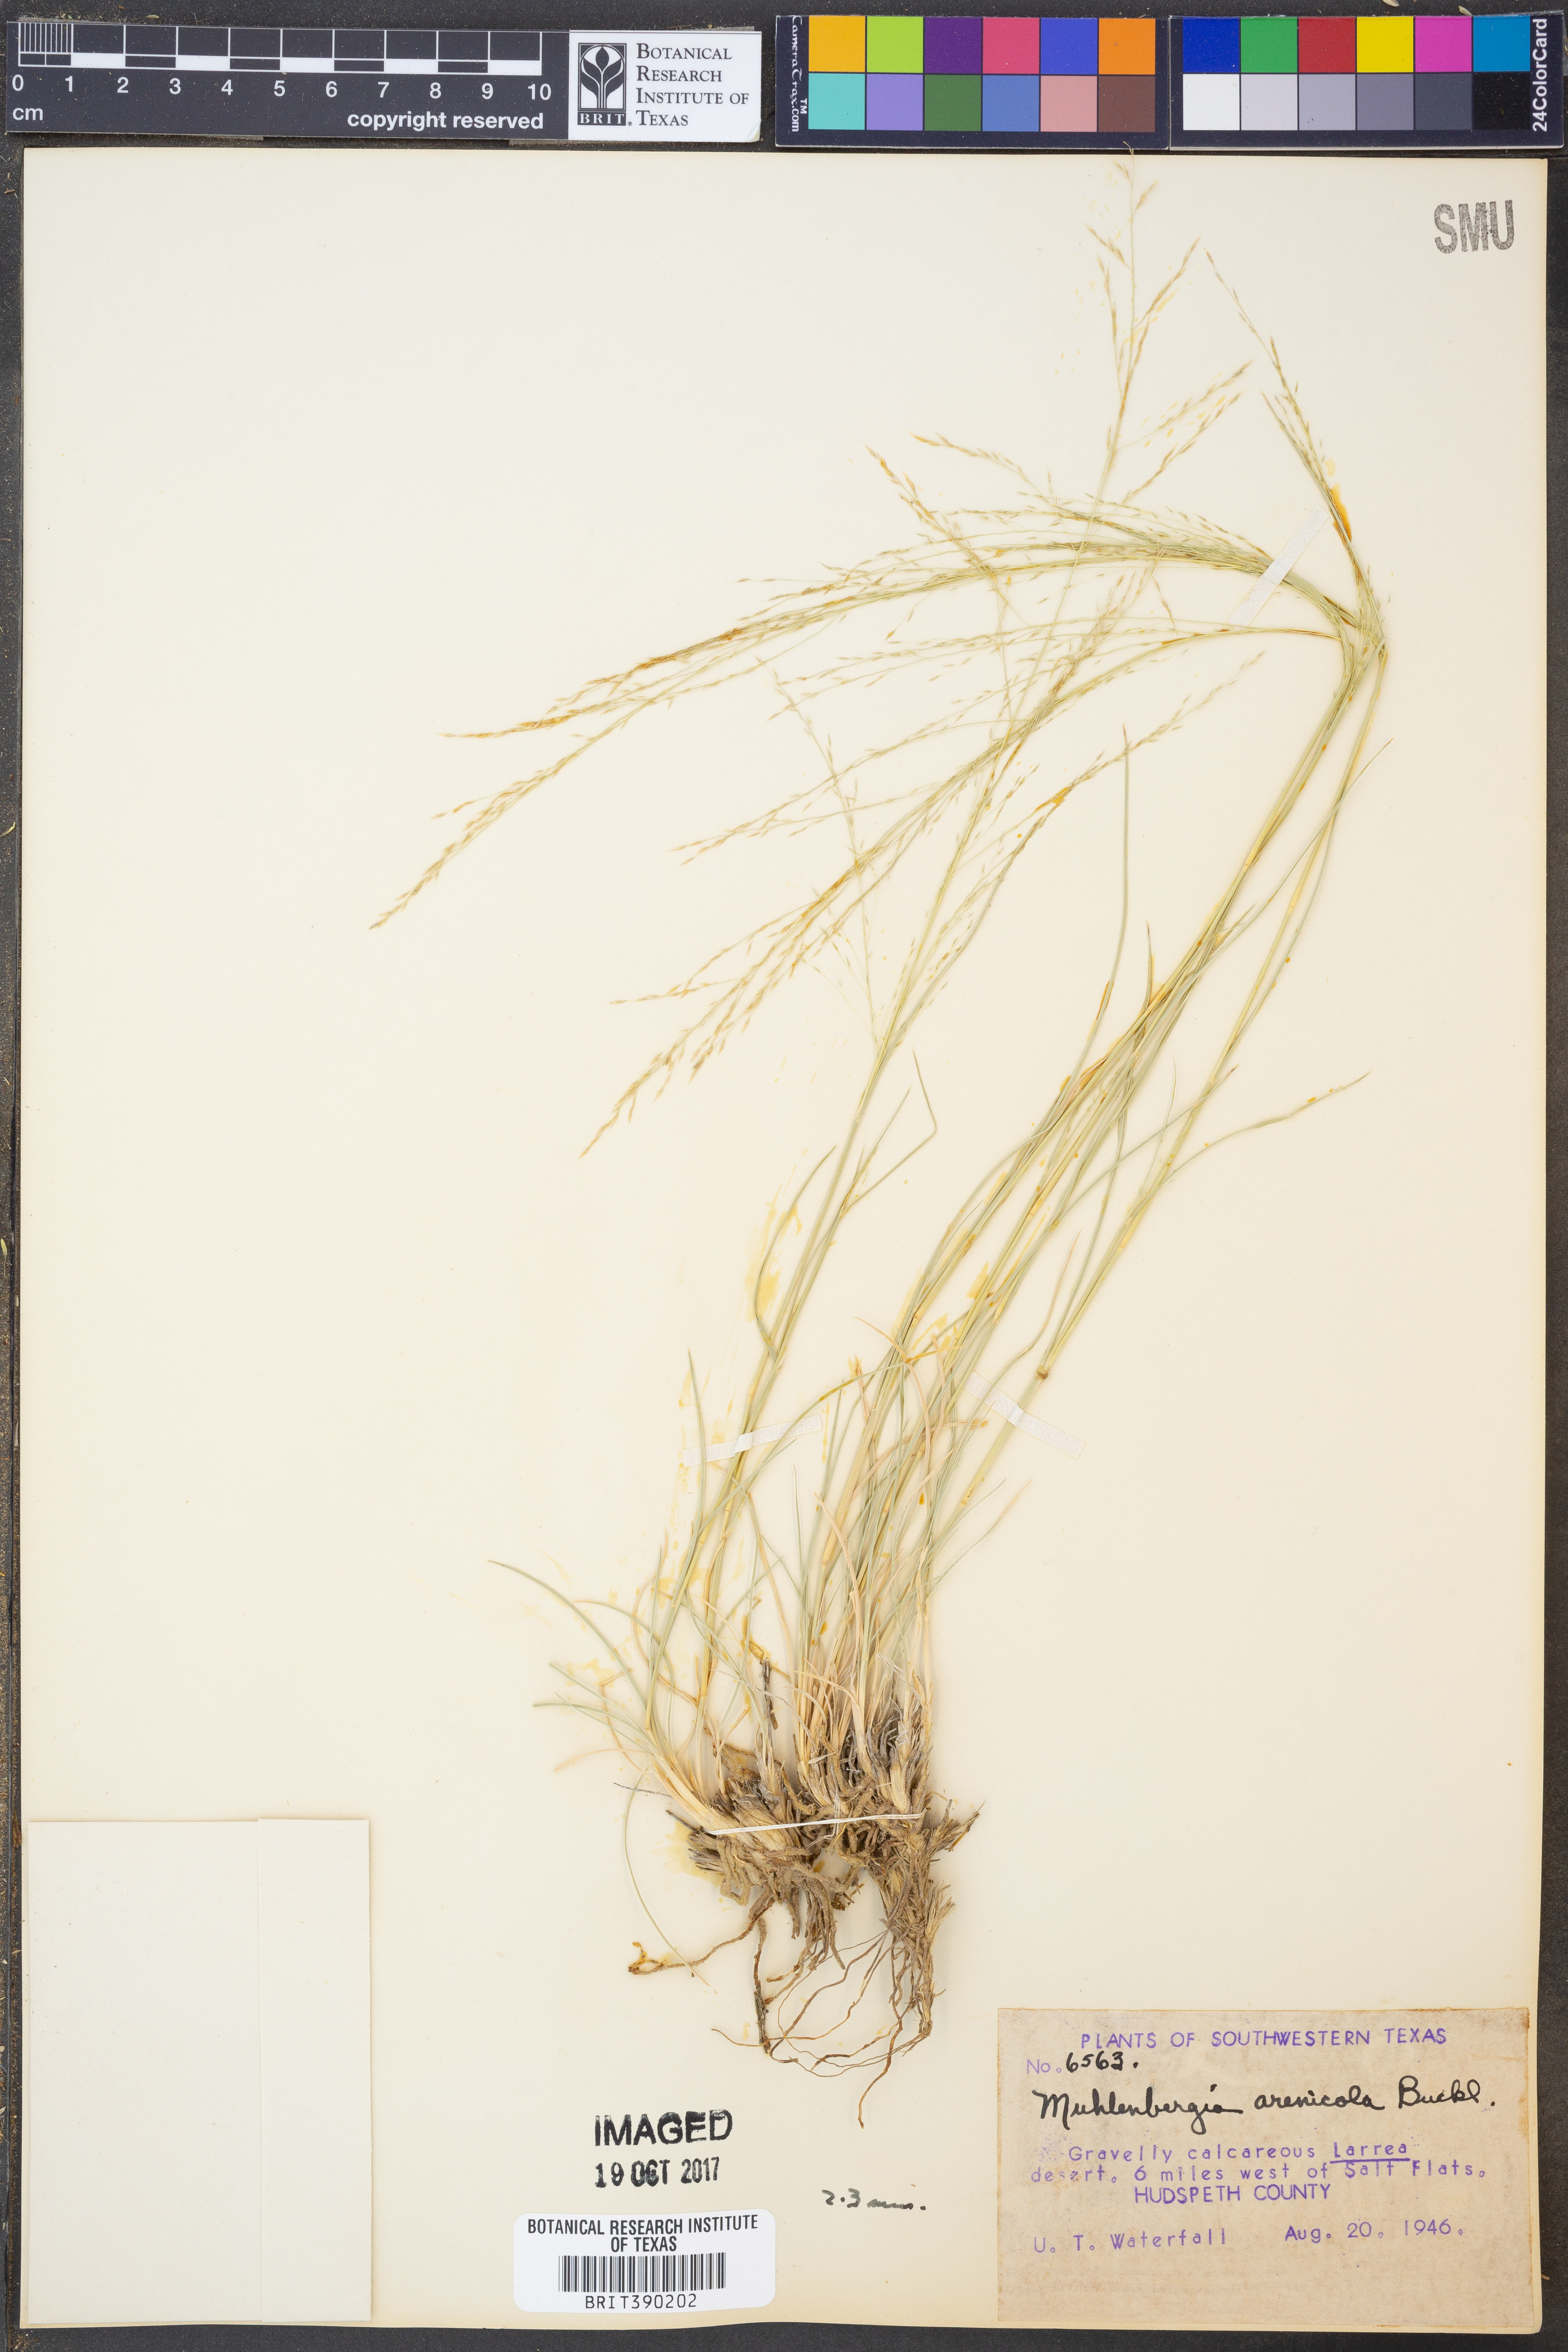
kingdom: Plantae
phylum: Tracheophyta
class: Liliopsida
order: Poales
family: Poaceae
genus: Muhlenbergia
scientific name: Muhlenbergia arenicola
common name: Sand muhly
